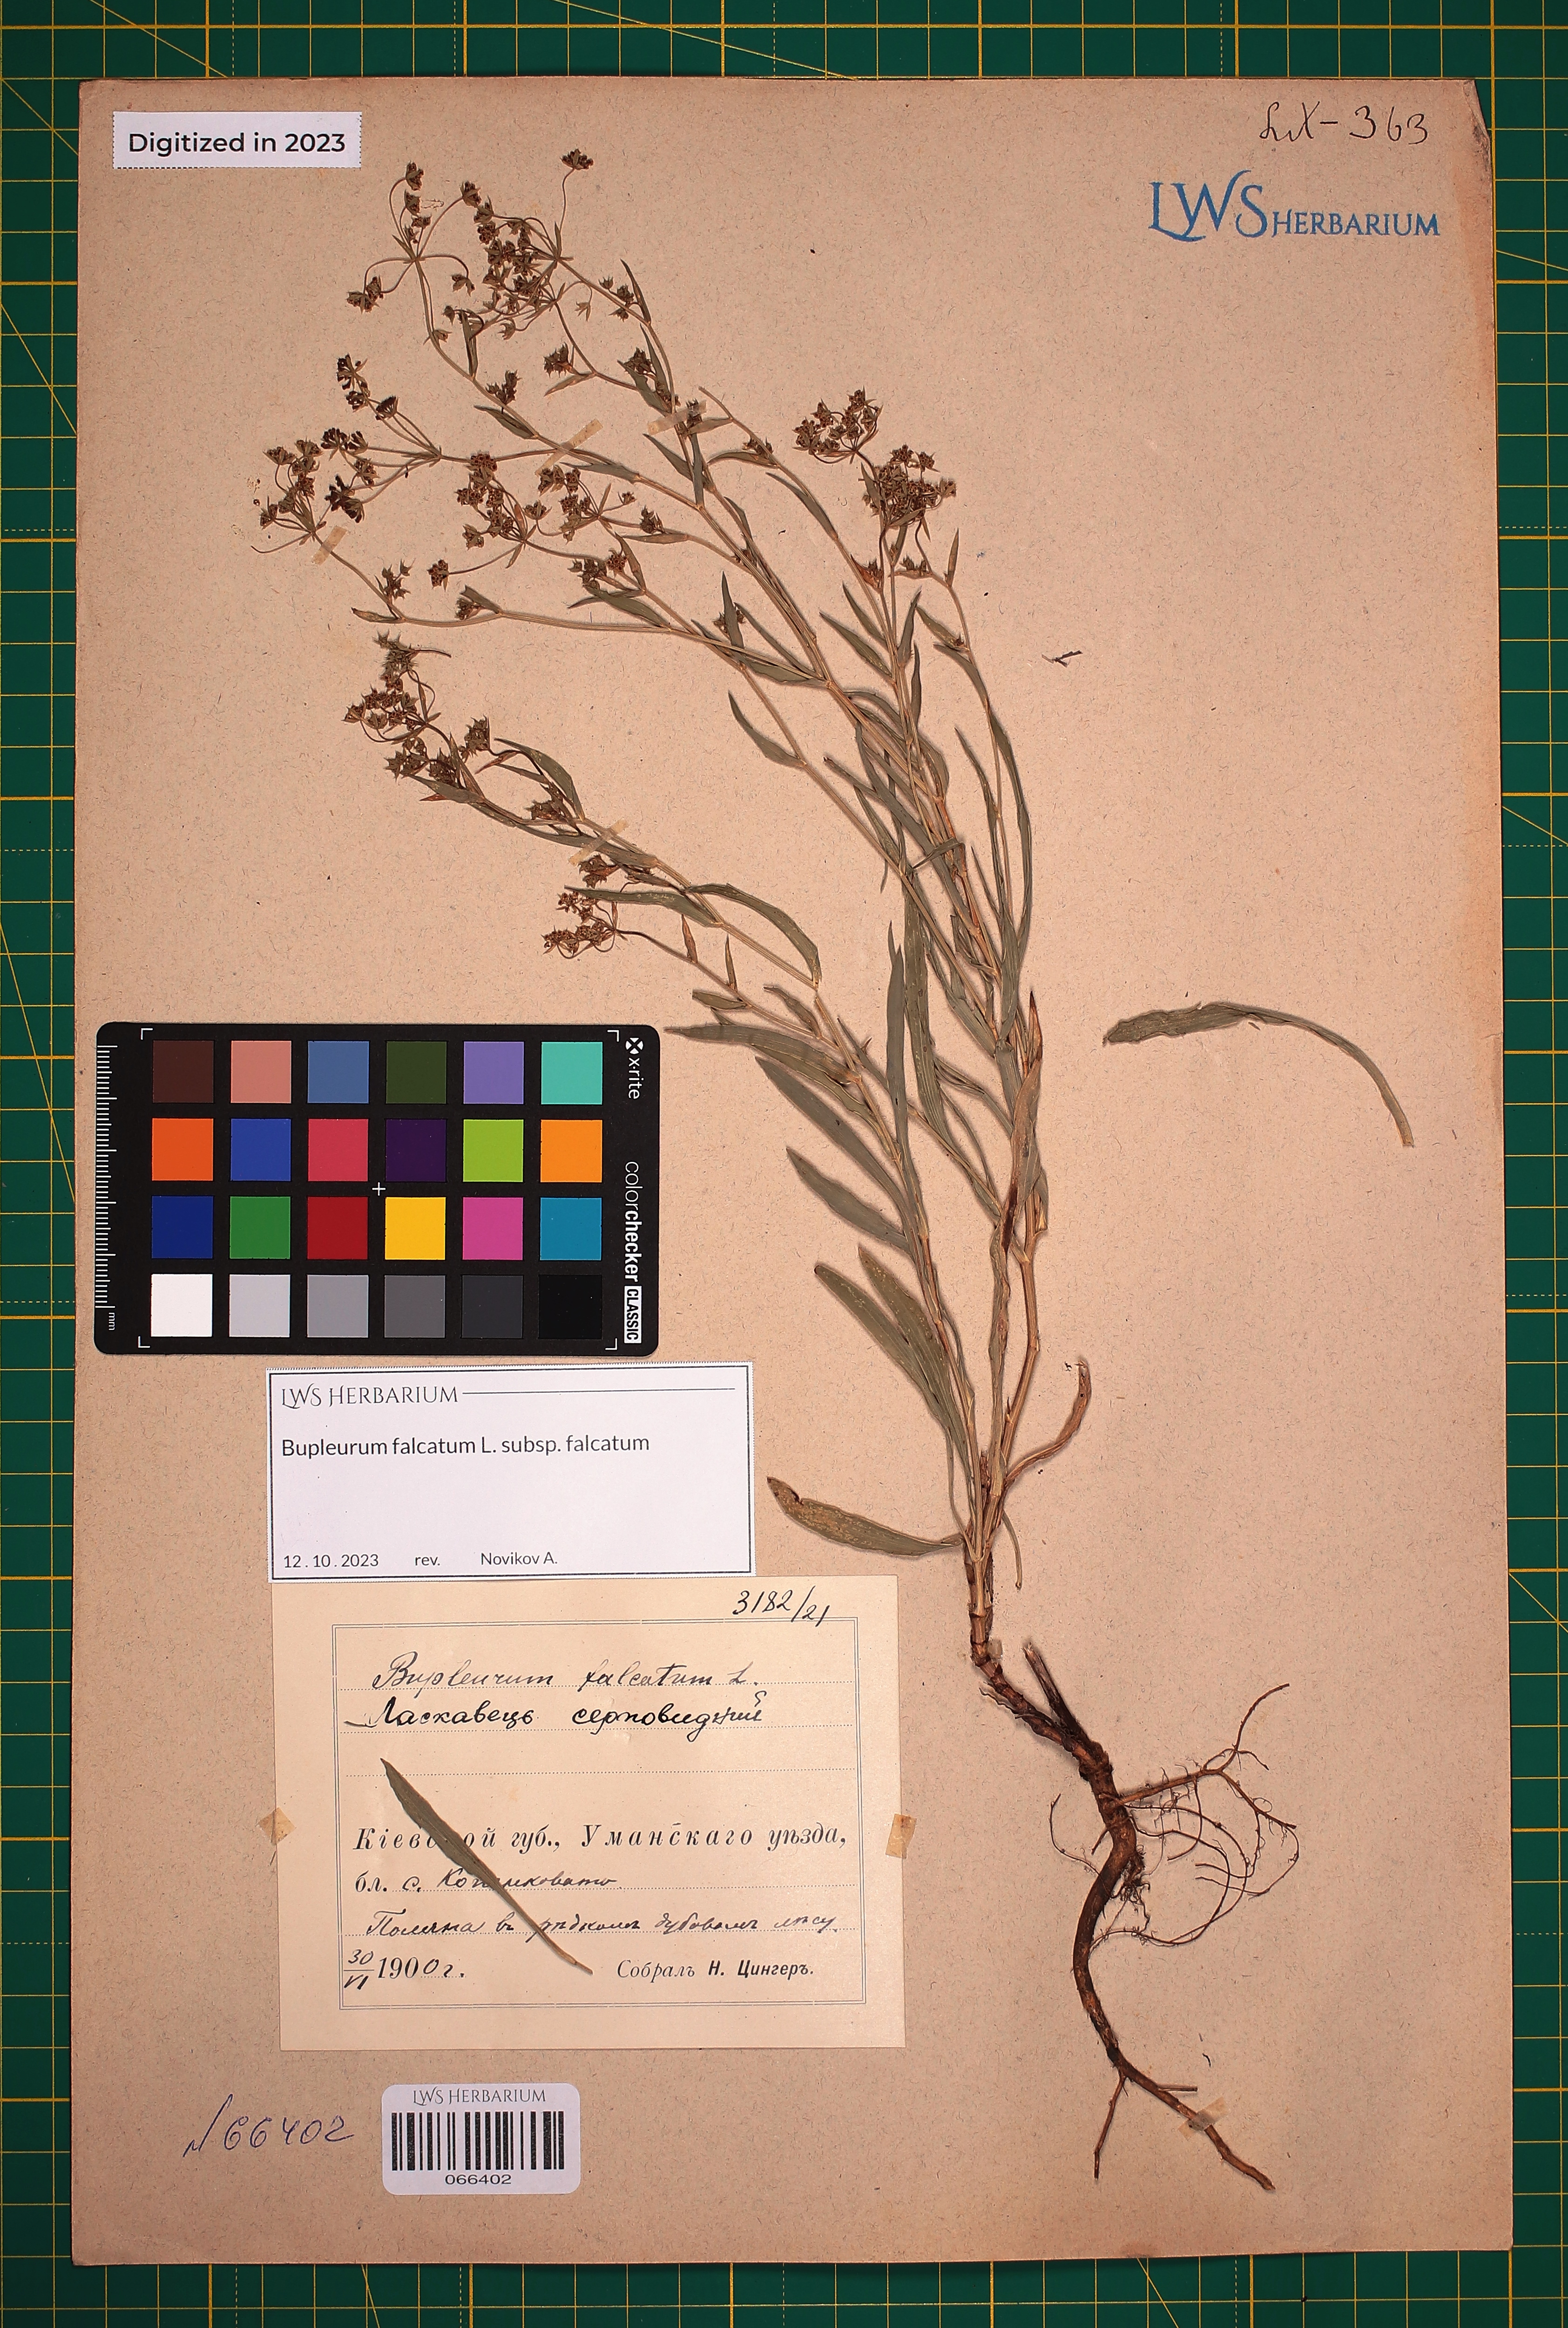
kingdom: Plantae
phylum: Tracheophyta
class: Magnoliopsida
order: Apiales
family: Apiaceae
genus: Bupleurum
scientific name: Bupleurum falcatum
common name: Sickle-leaved hare's-ear
